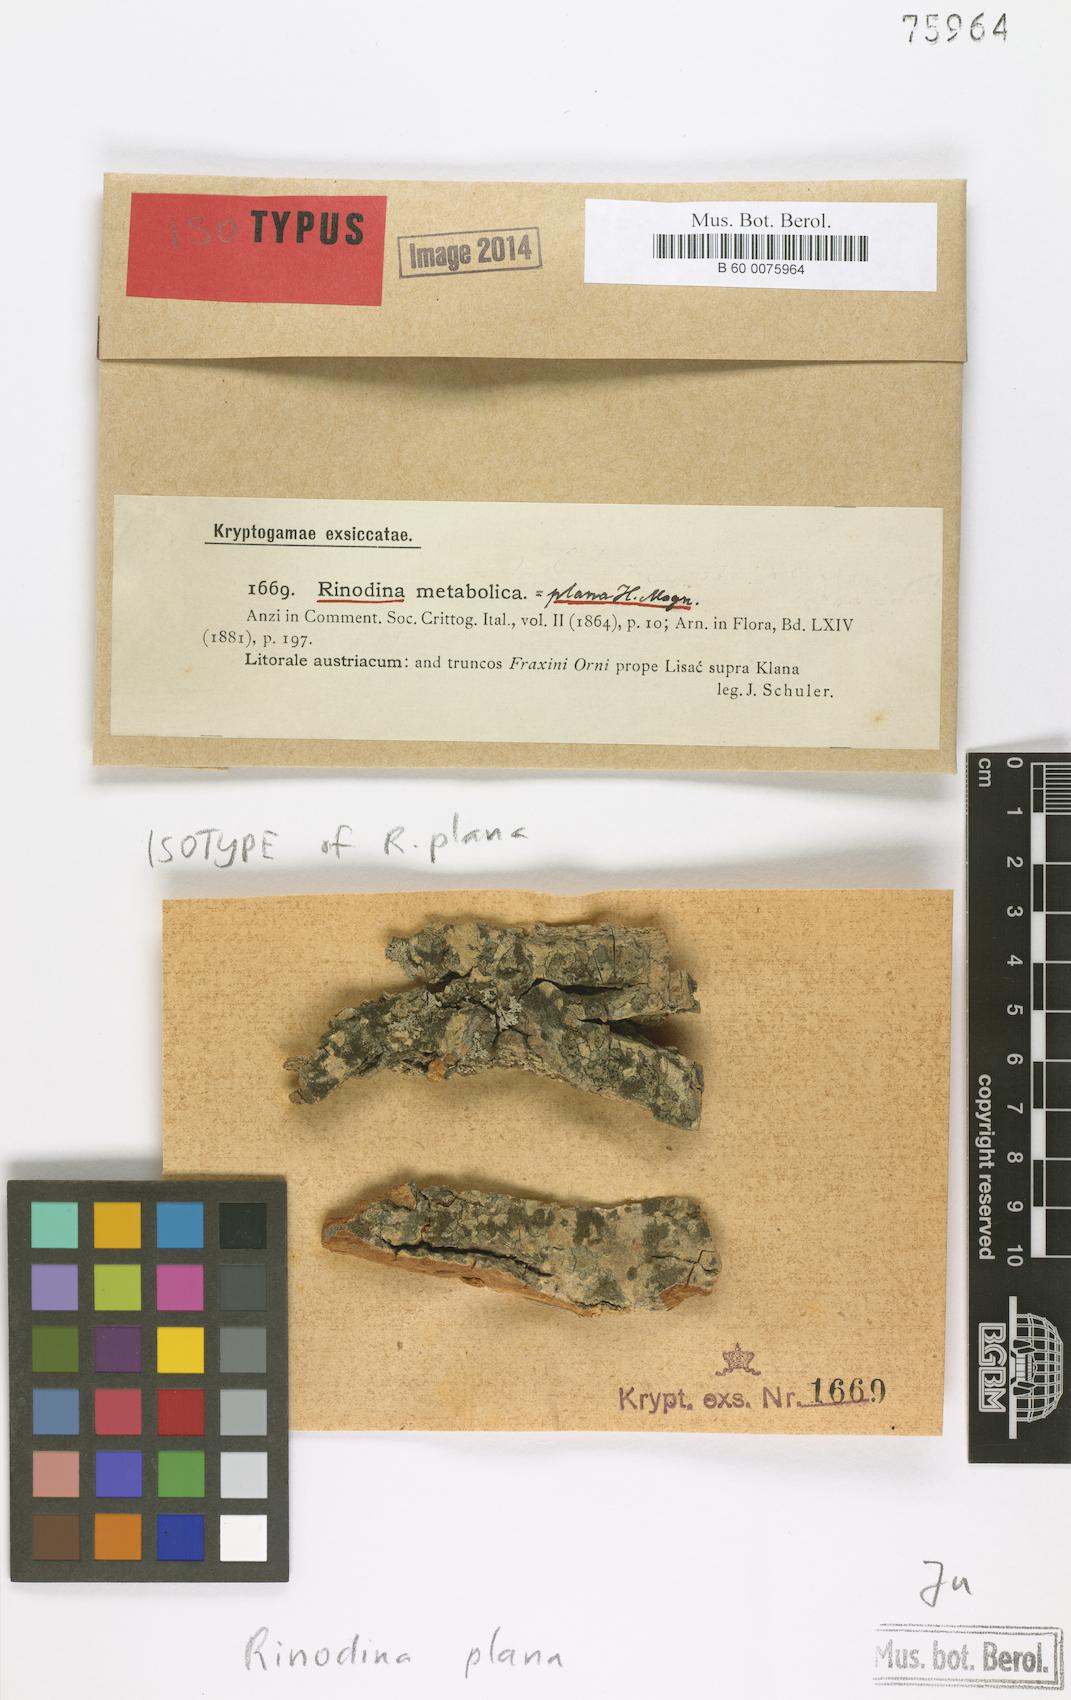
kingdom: Fungi
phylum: Ascomycota
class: Lecanoromycetes
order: Caliciales
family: Physciaceae
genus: Huriopsis
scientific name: Huriopsis plana
